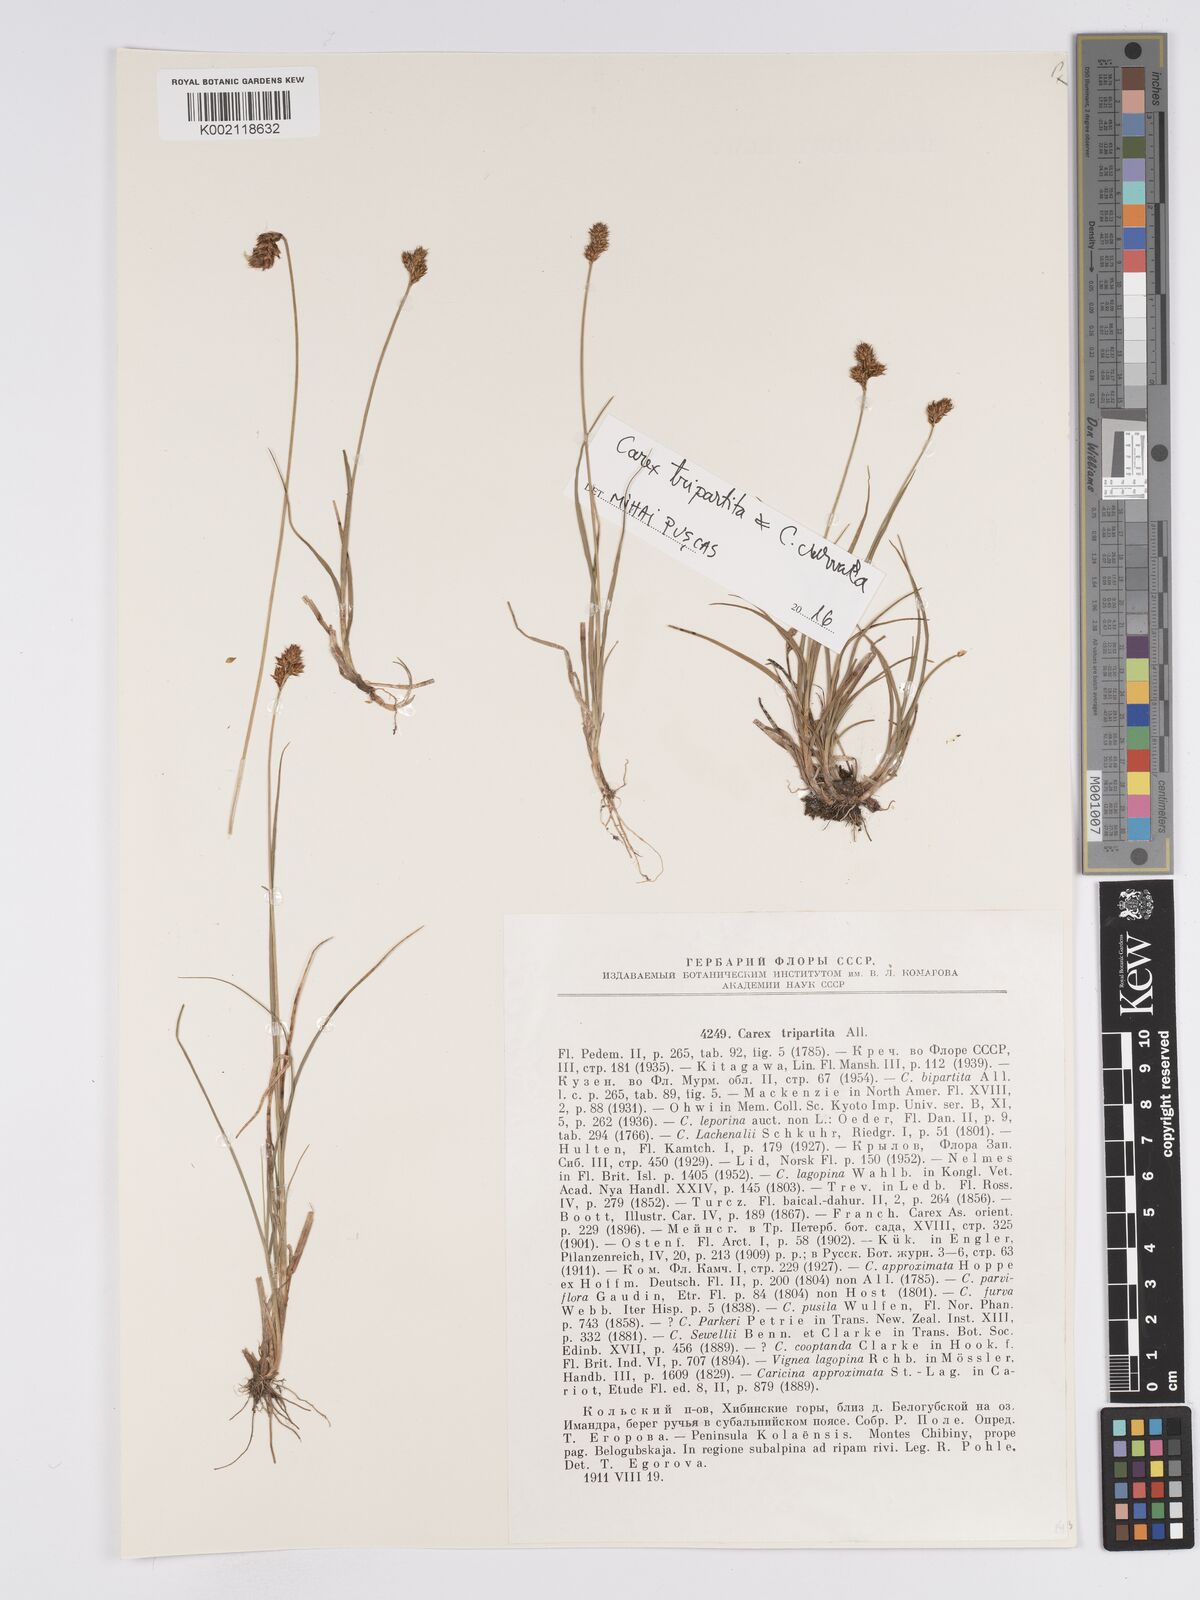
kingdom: Plantae
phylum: Tracheophyta
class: Liliopsida
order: Poales
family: Cyperaceae
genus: Carex
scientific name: Carex curvula
